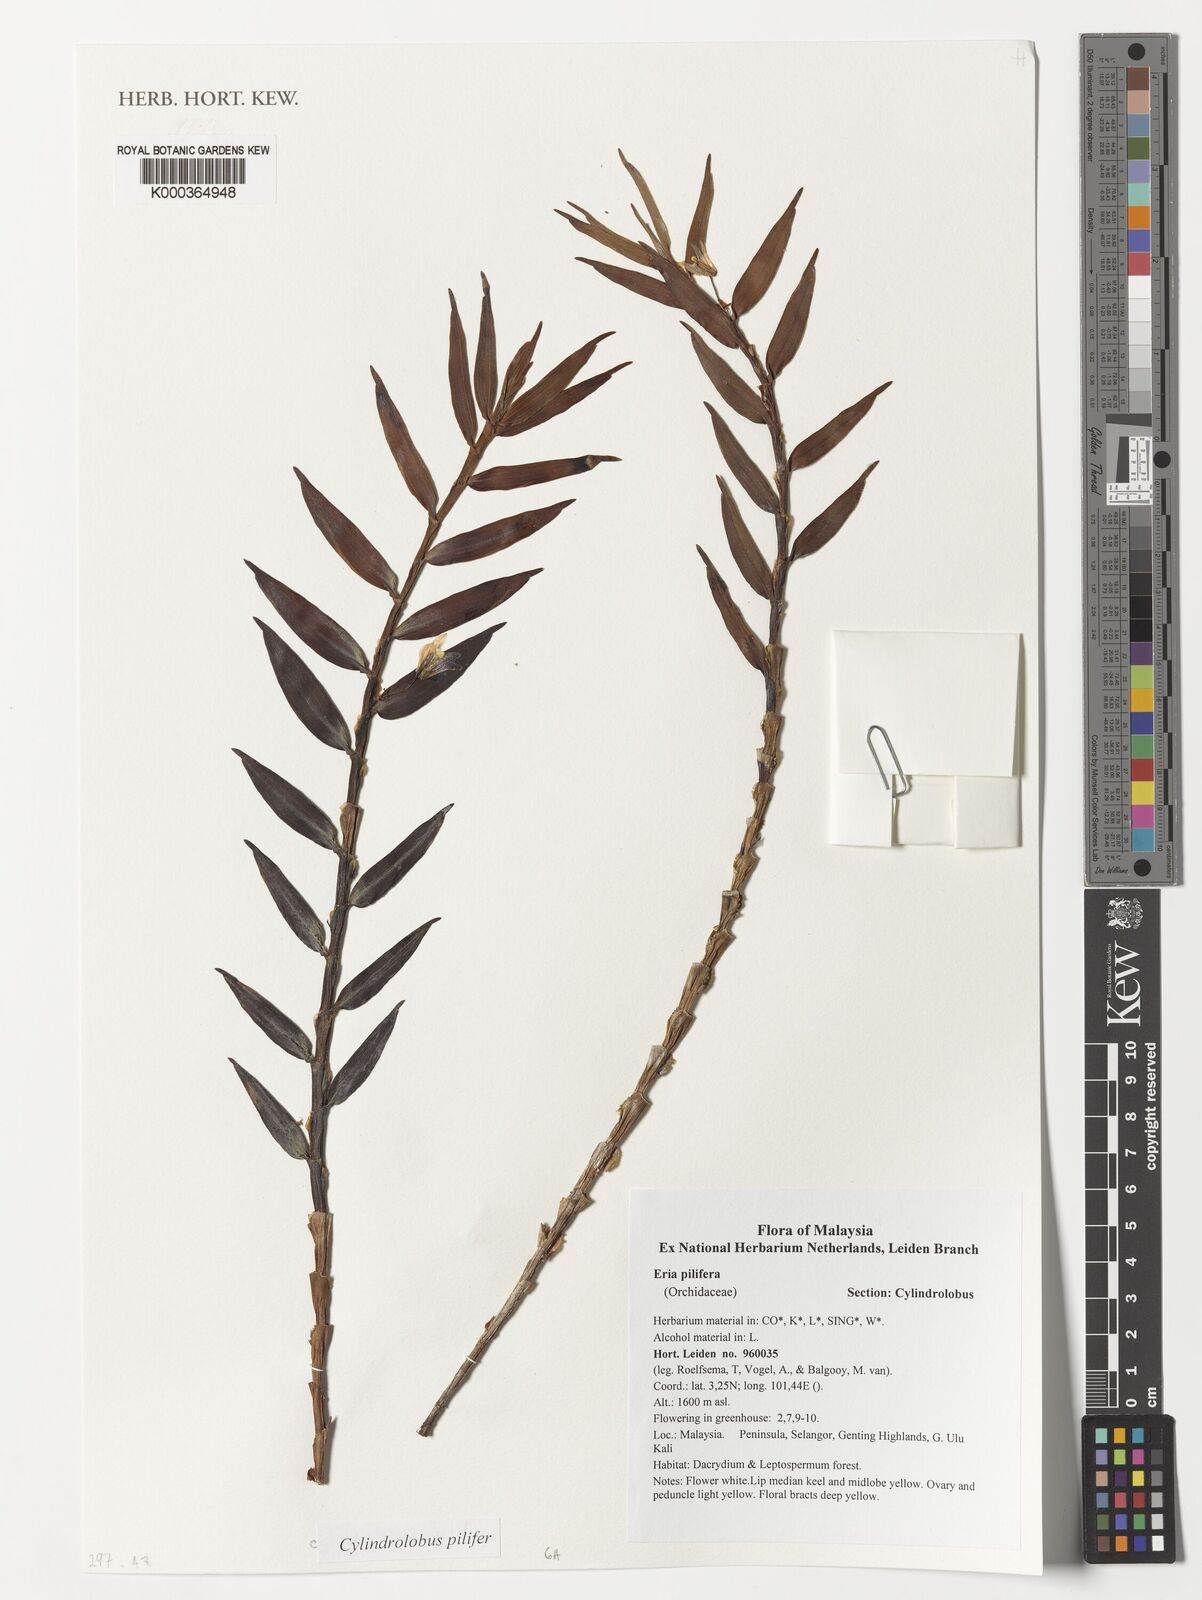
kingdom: Plantae
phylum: Tracheophyta
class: Liliopsida
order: Asparagales
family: Orchidaceae
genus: Cylindrolobus
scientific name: Cylindrolobus lamonganensis
